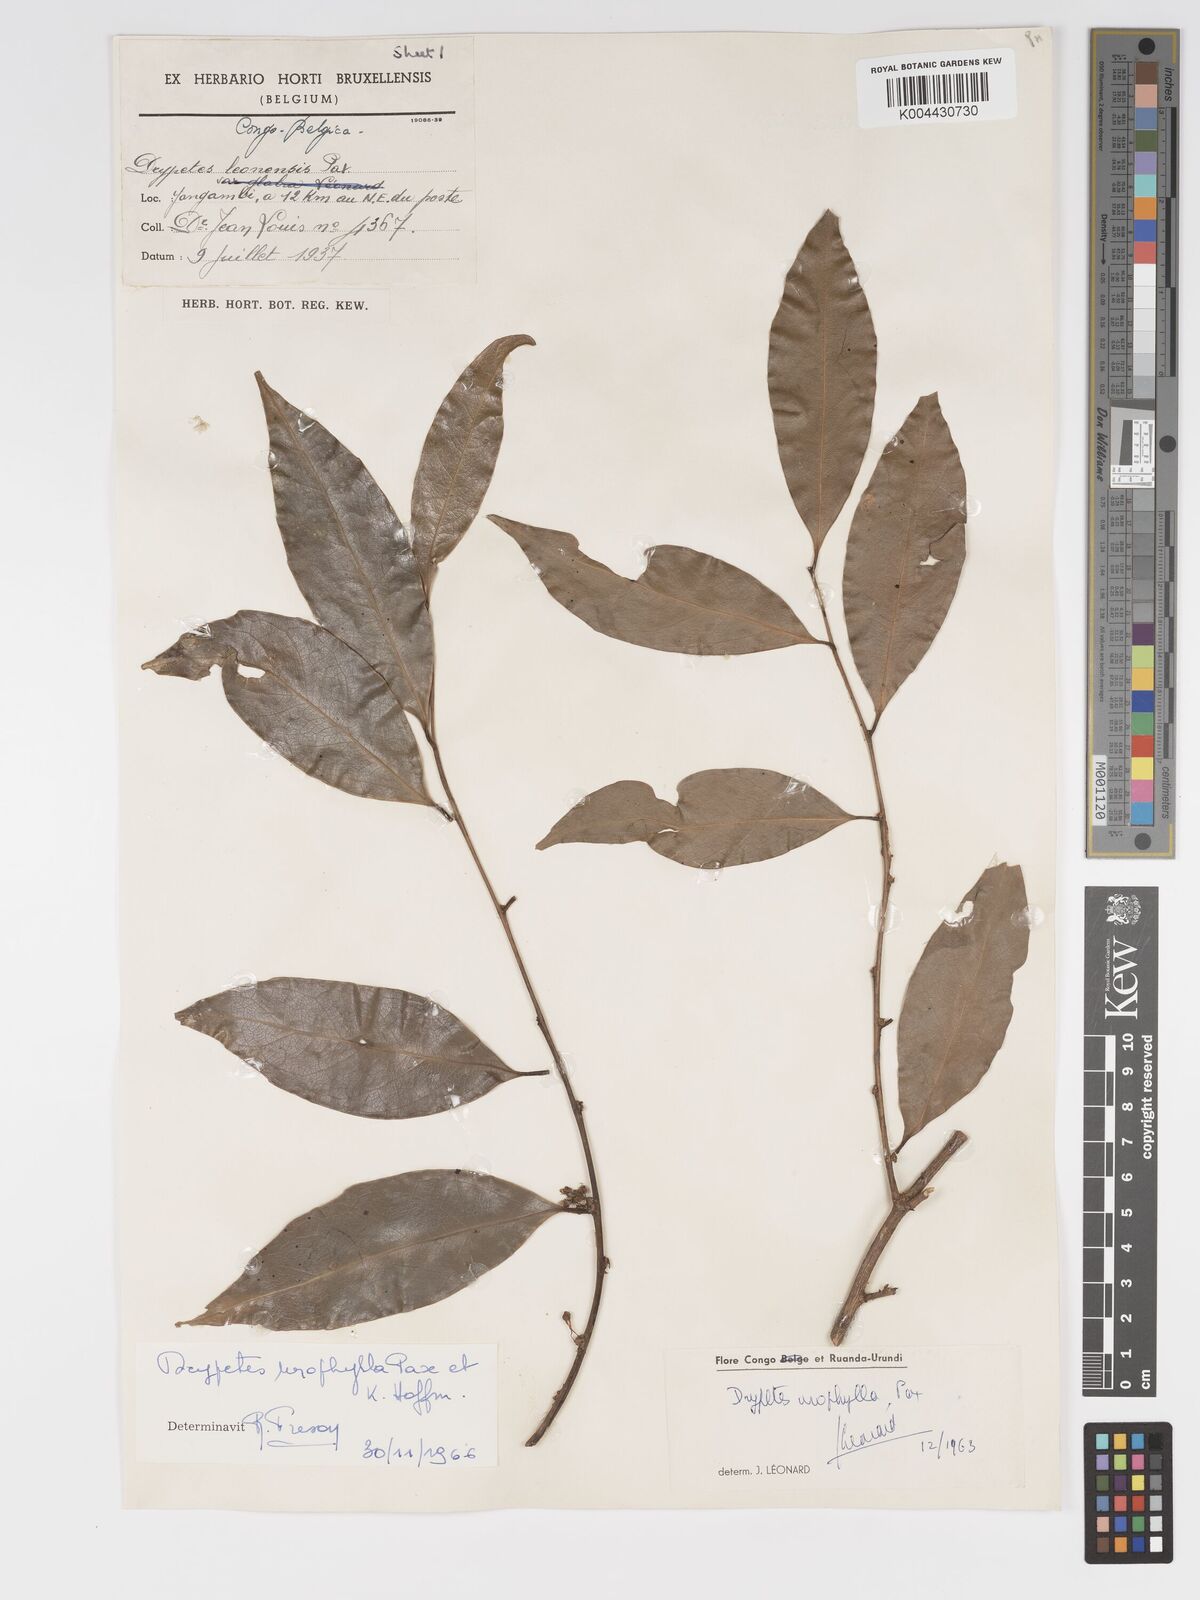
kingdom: Plantae
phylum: Tracheophyta
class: Magnoliopsida
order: Malpighiales
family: Putranjivaceae
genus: Drypetes
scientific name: Drypetes leonensis
